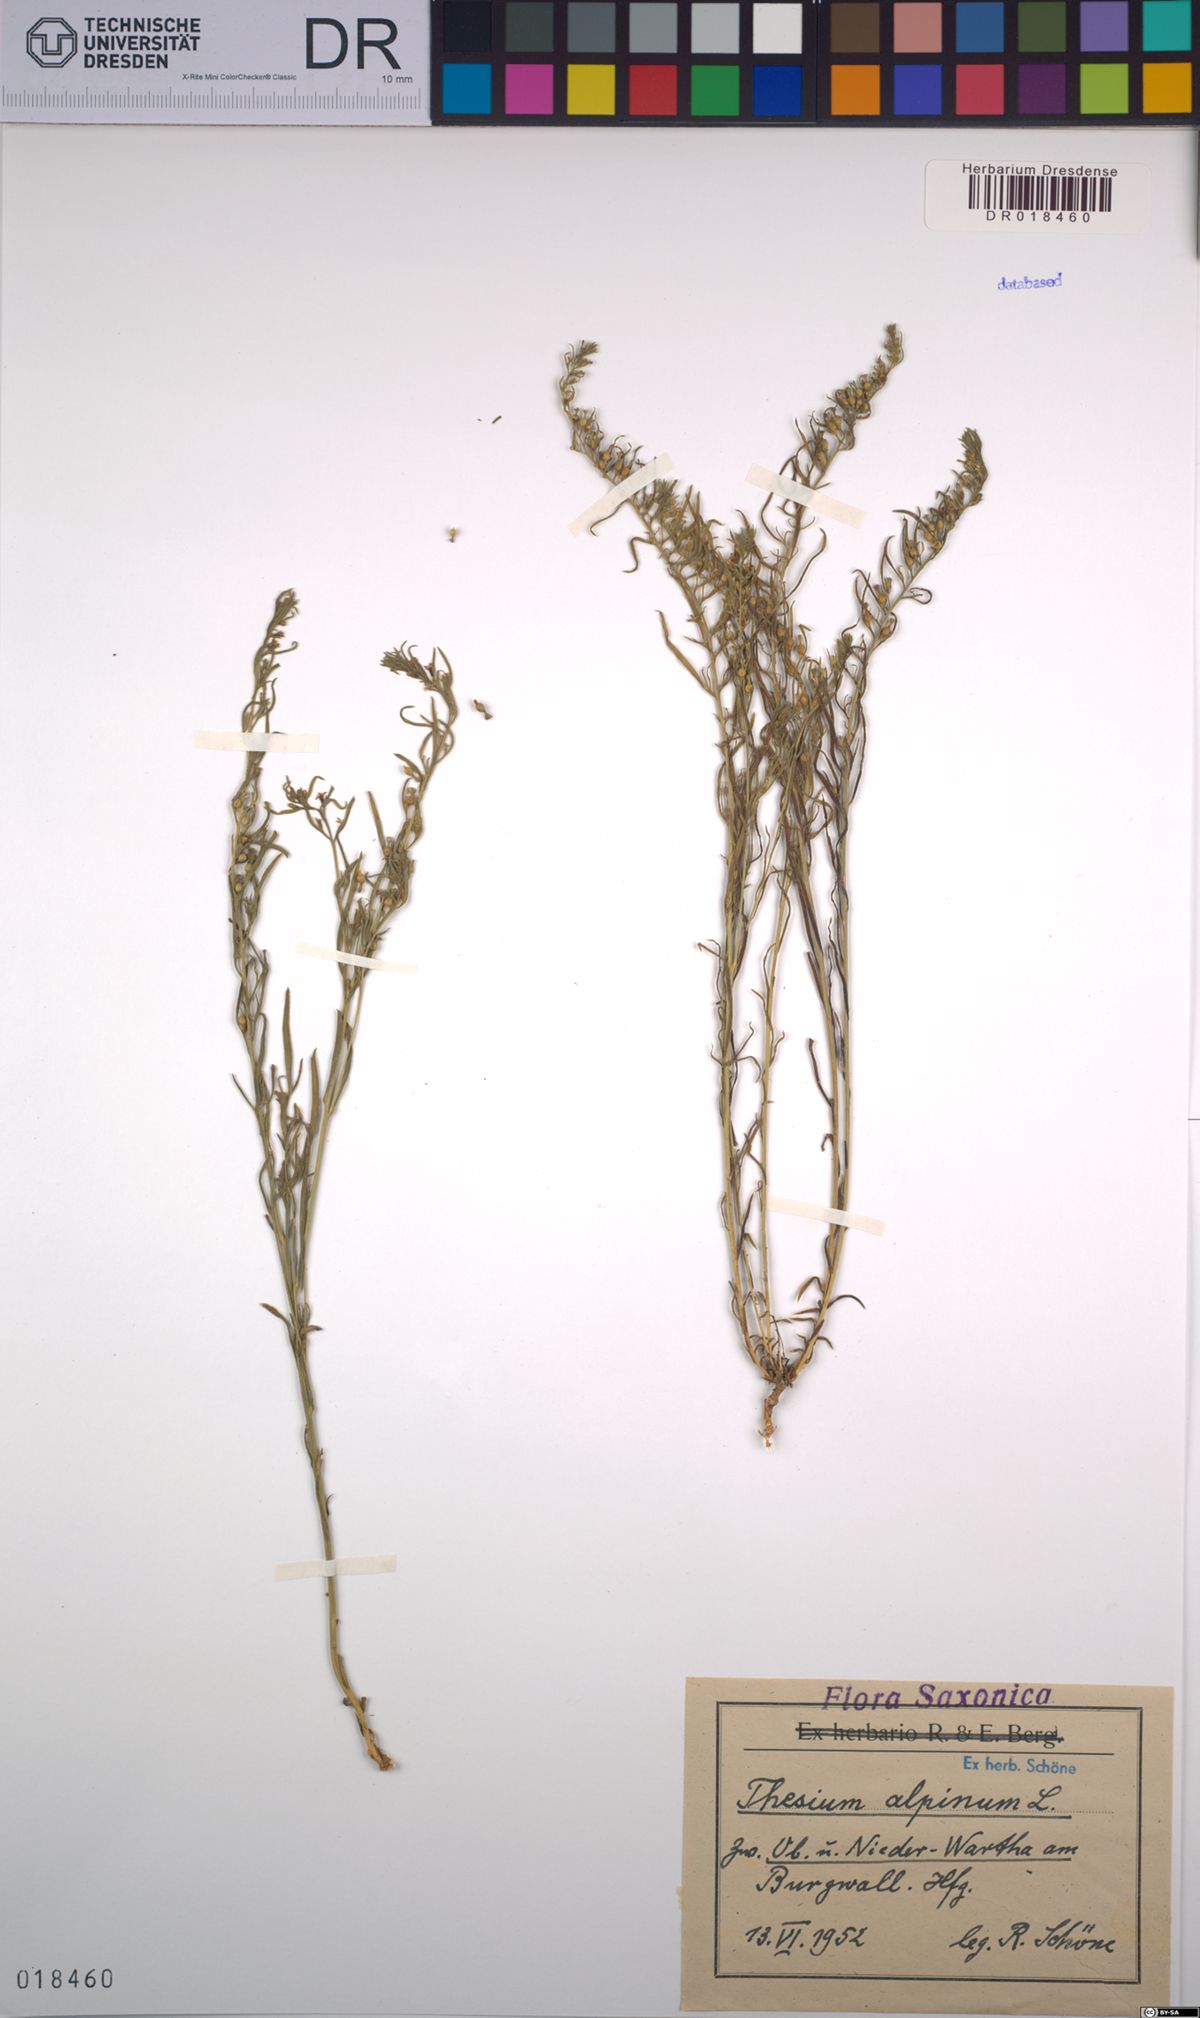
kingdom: Plantae
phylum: Tracheophyta
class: Magnoliopsida
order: Santalales
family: Thesiaceae
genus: Thesium
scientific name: Thesium alpinum
